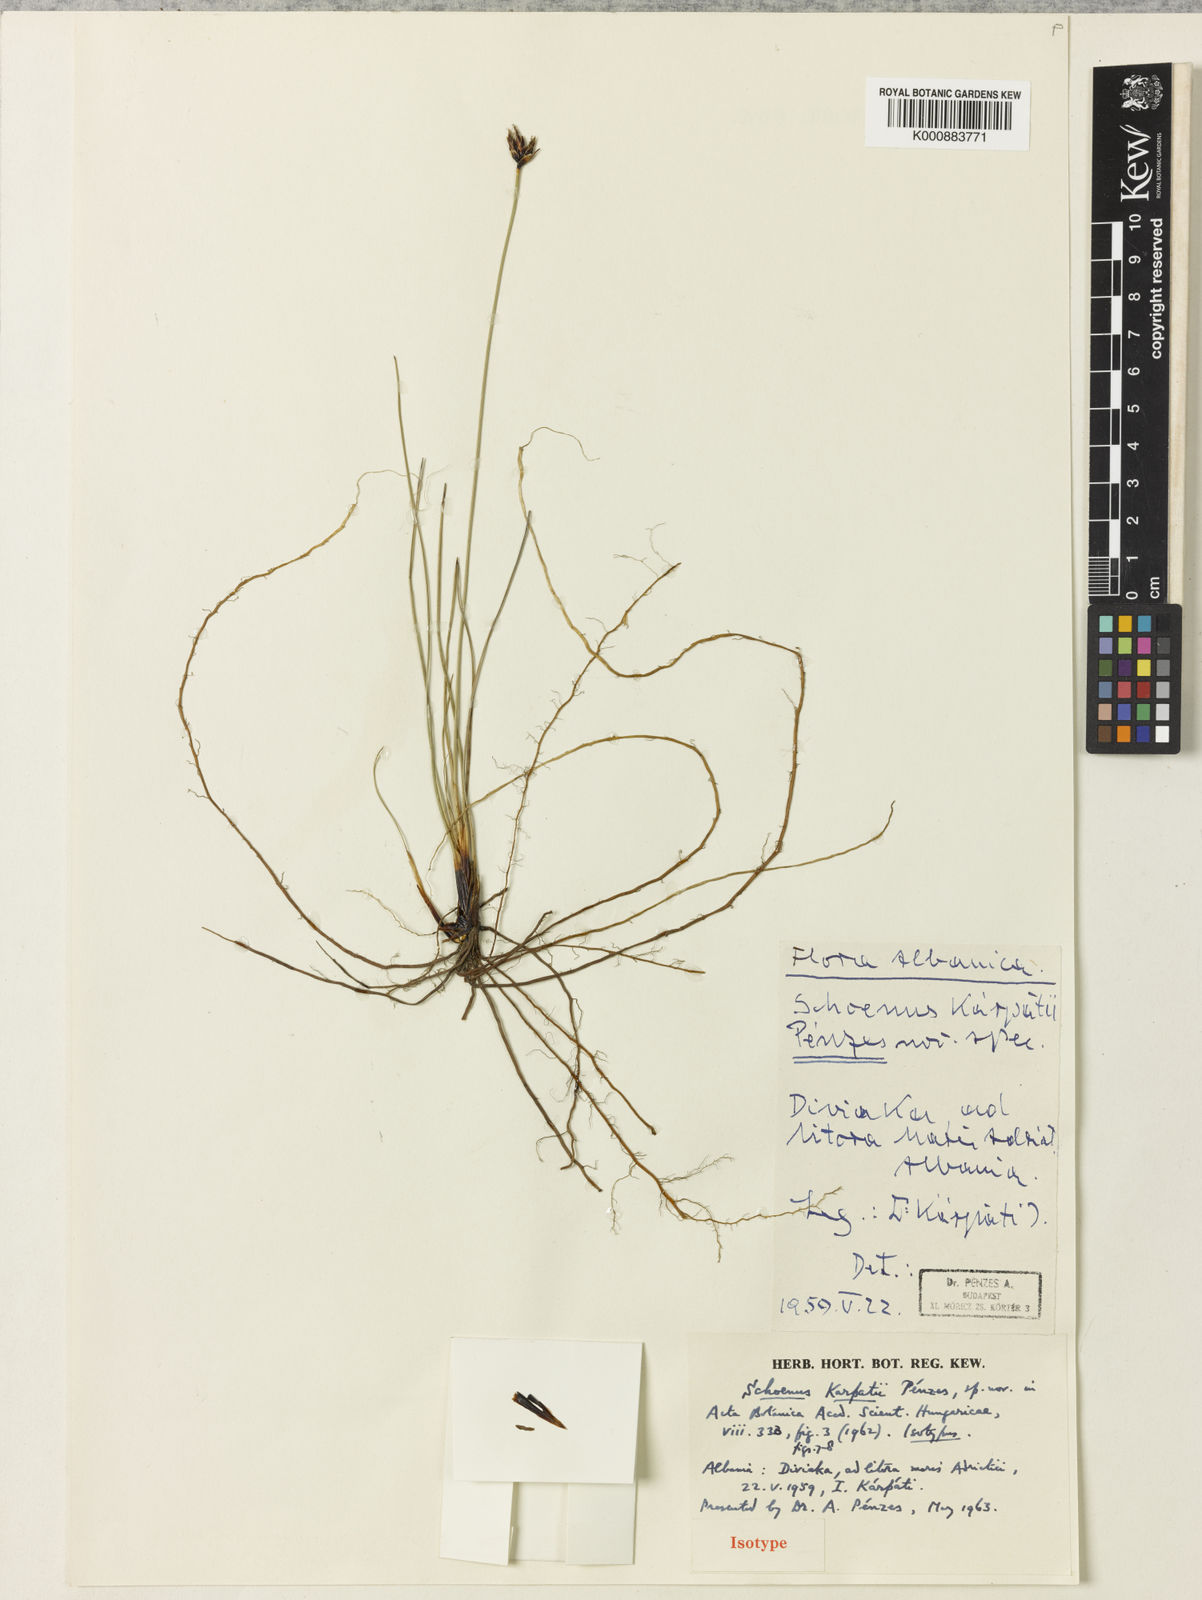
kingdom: Plantae
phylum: Tracheophyta
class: Liliopsida
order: Poales
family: Cyperaceae
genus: Schoenus
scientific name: Schoenus
